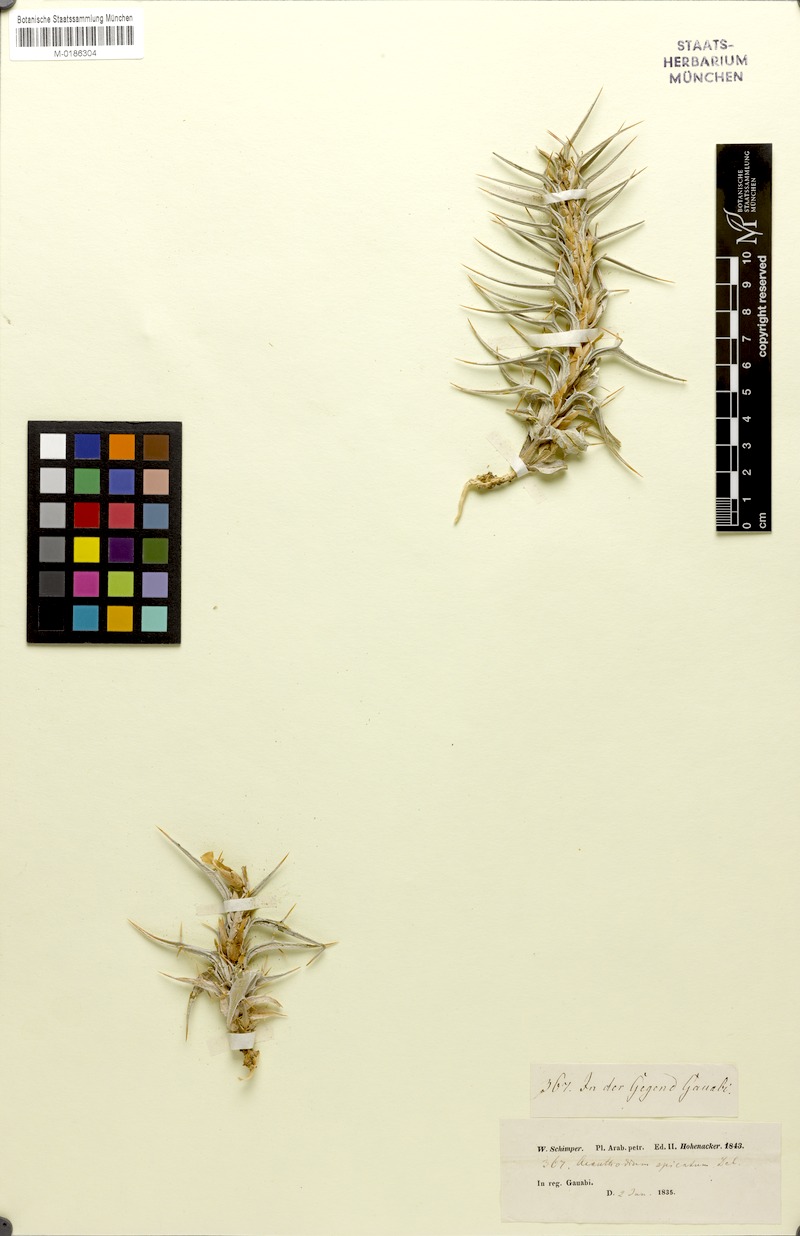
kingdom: Plantae
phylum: Tracheophyta
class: Magnoliopsida
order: Lamiales
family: Acanthaceae
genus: Blepharis
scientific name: Blepharis
